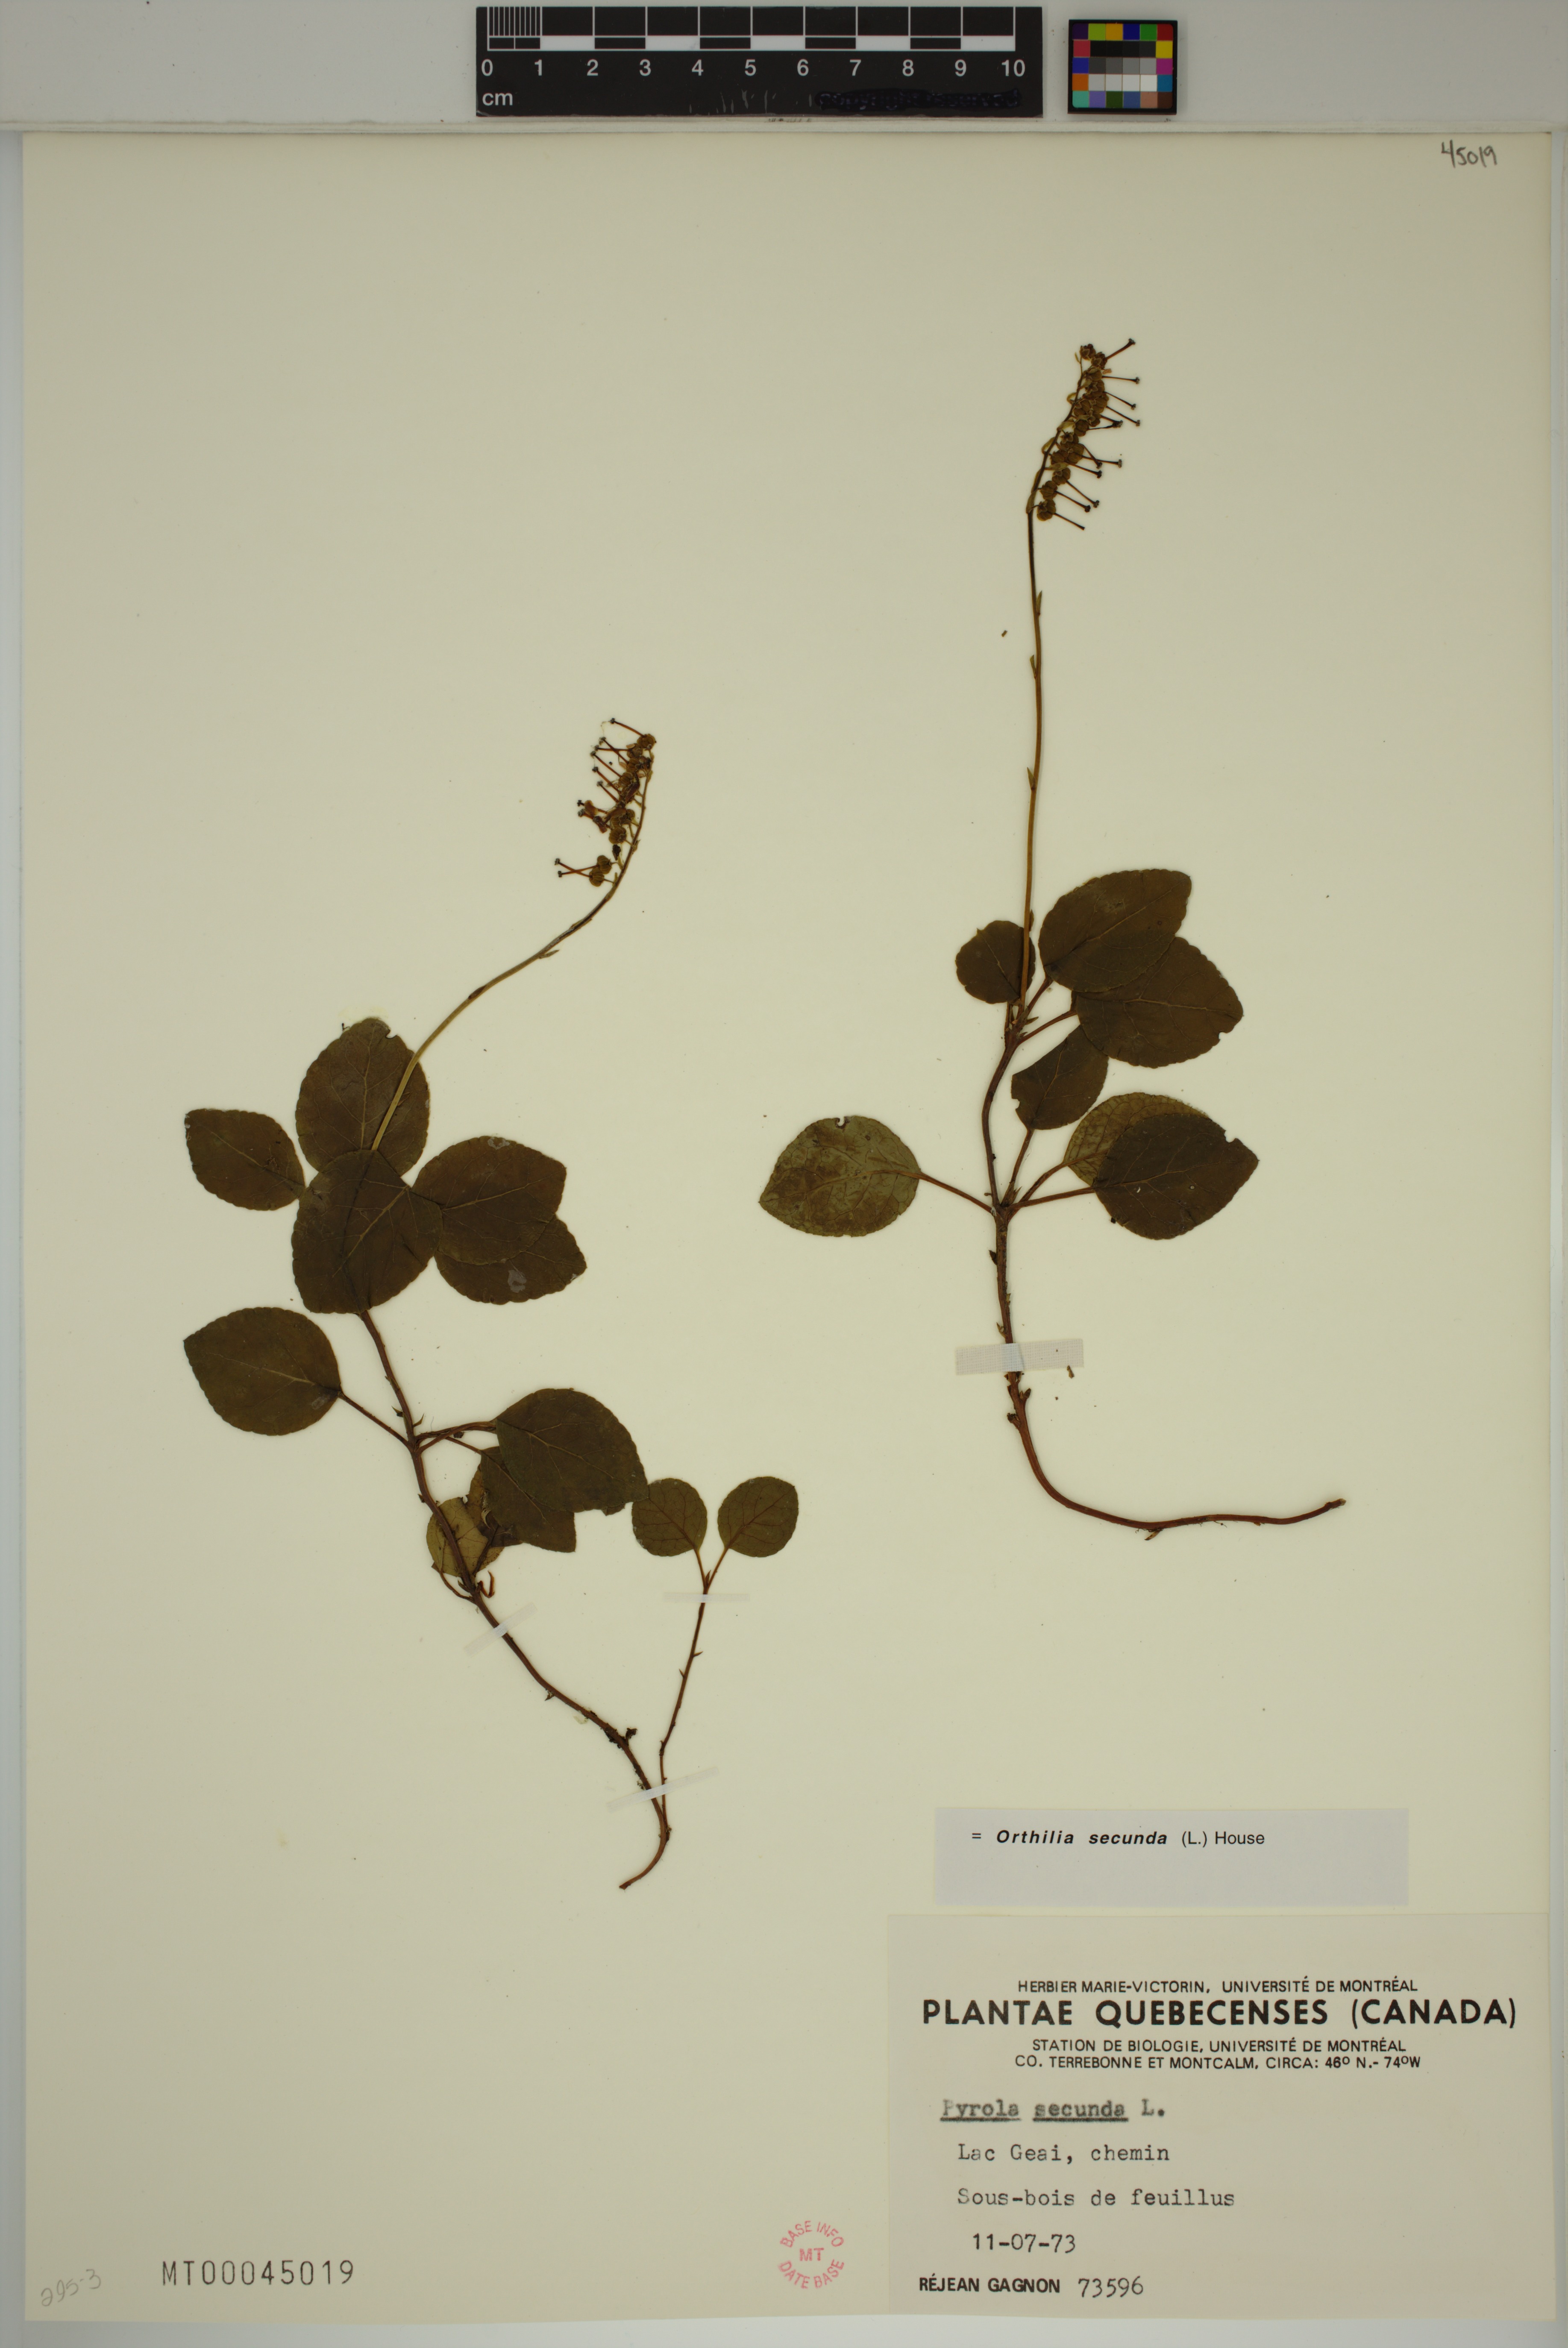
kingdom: Plantae
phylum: Tracheophyta
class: Magnoliopsida
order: Ericales
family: Ericaceae
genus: Orthilia
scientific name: Orthilia secunda
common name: One-sided orthilia
